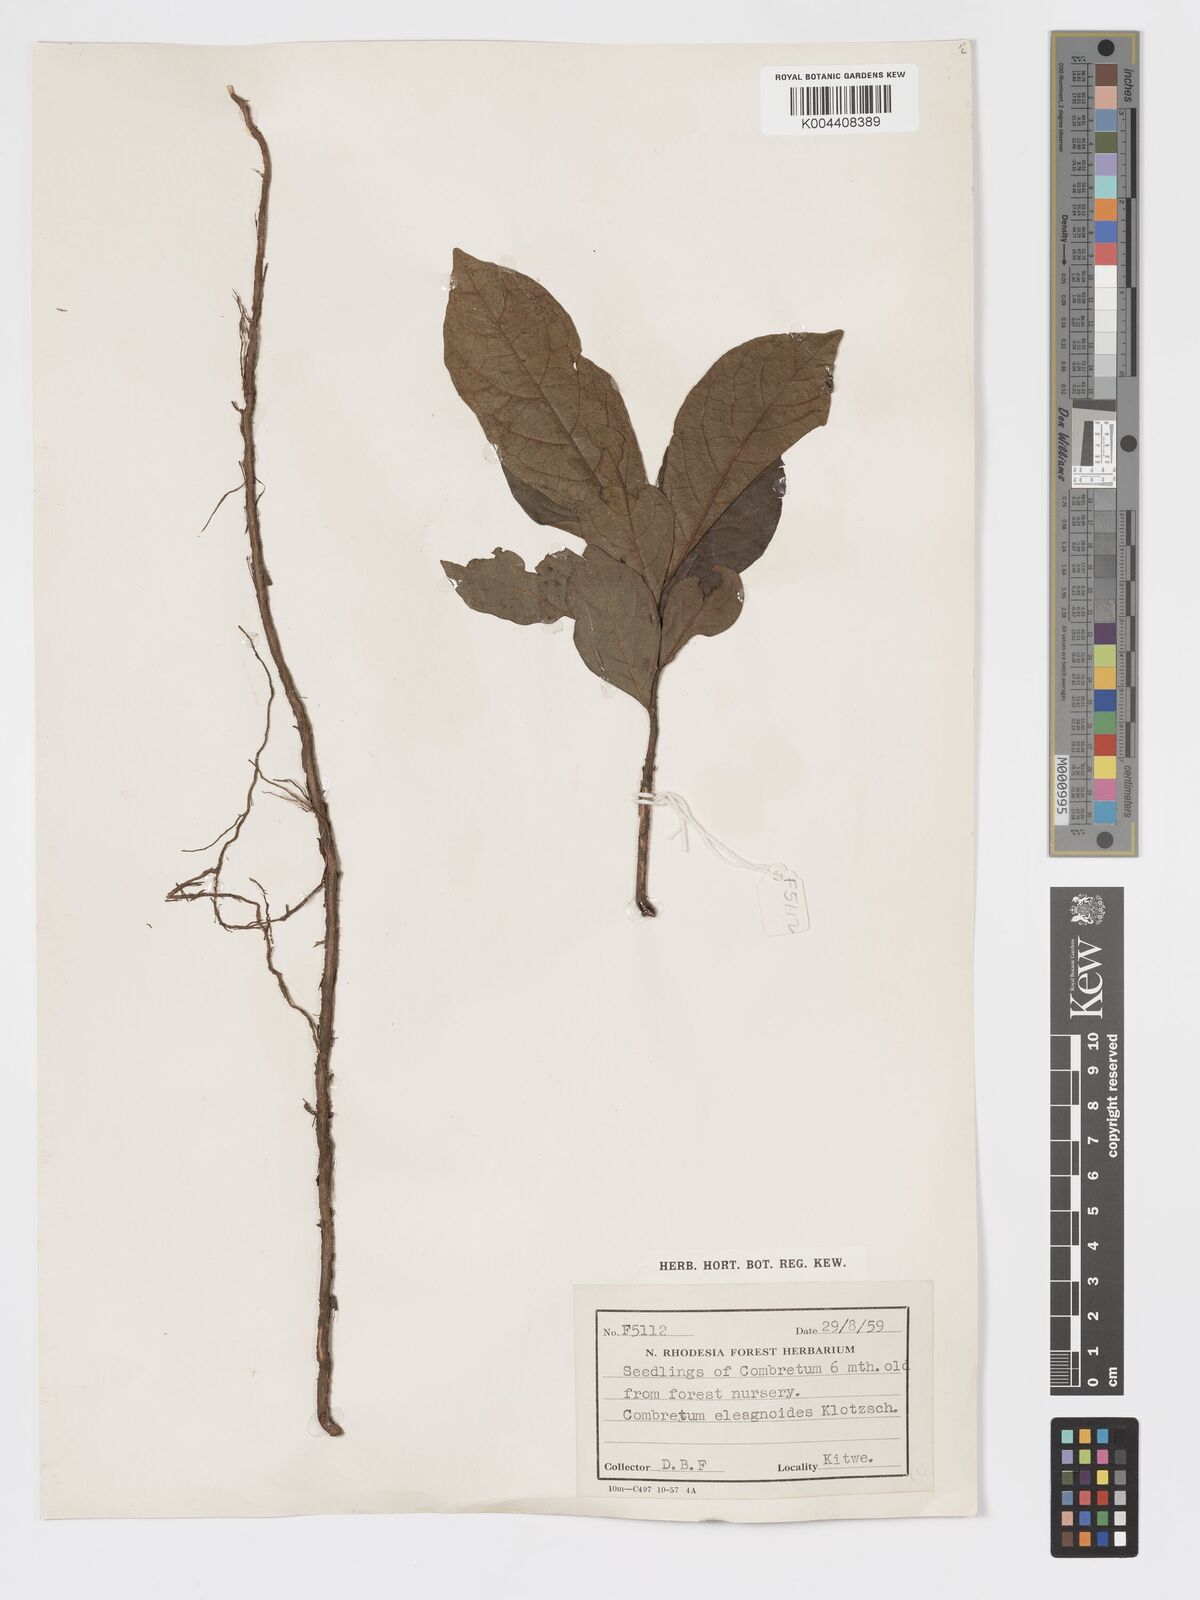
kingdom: Plantae
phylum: Tracheophyta
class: Magnoliopsida
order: Myrtales
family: Combretaceae
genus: Combretum
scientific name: Combretum elaeagnoides
